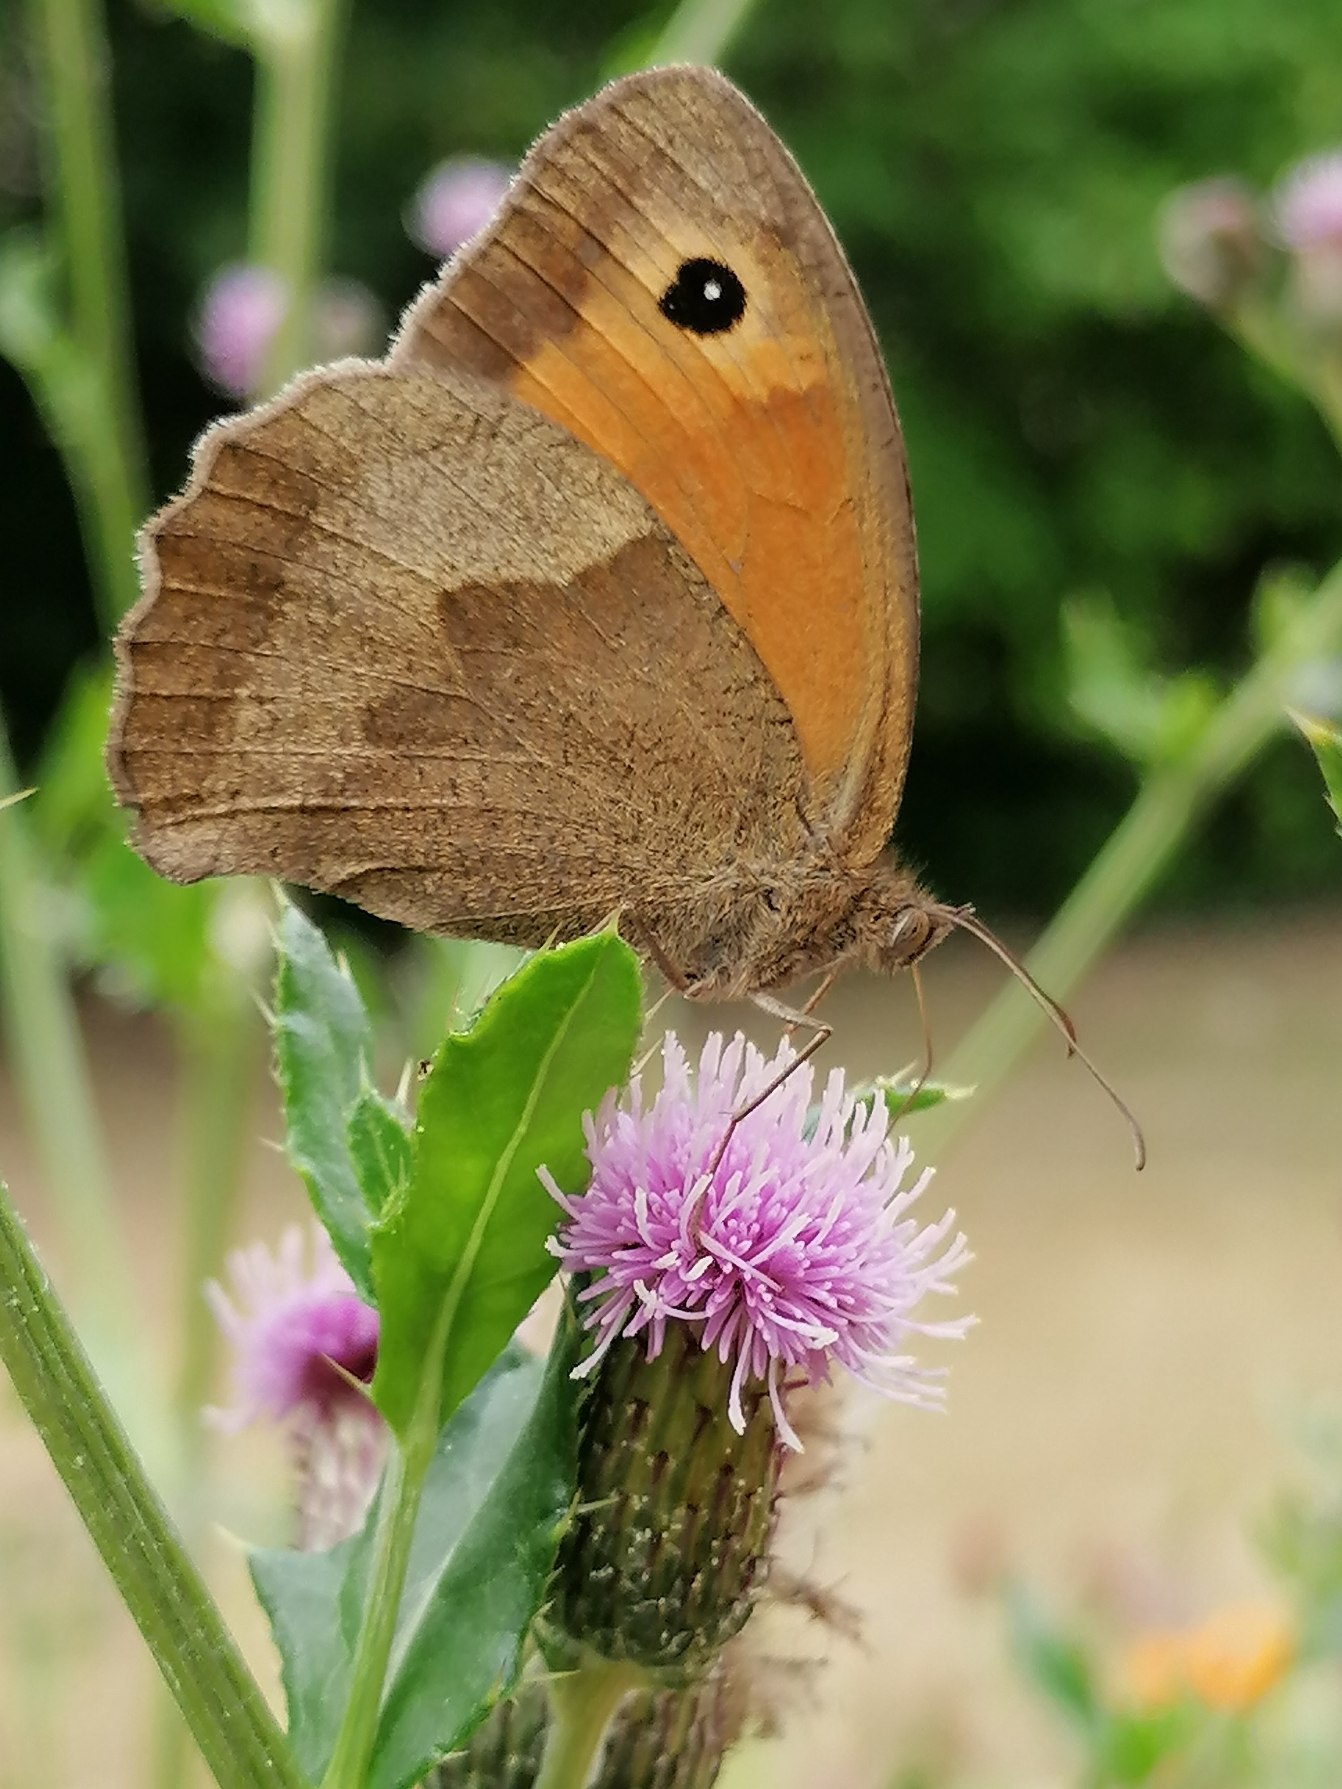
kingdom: Animalia
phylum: Arthropoda
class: Insecta
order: Lepidoptera
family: Nymphalidae
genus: Maniola
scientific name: Maniola jurtina
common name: Græsrandøje
